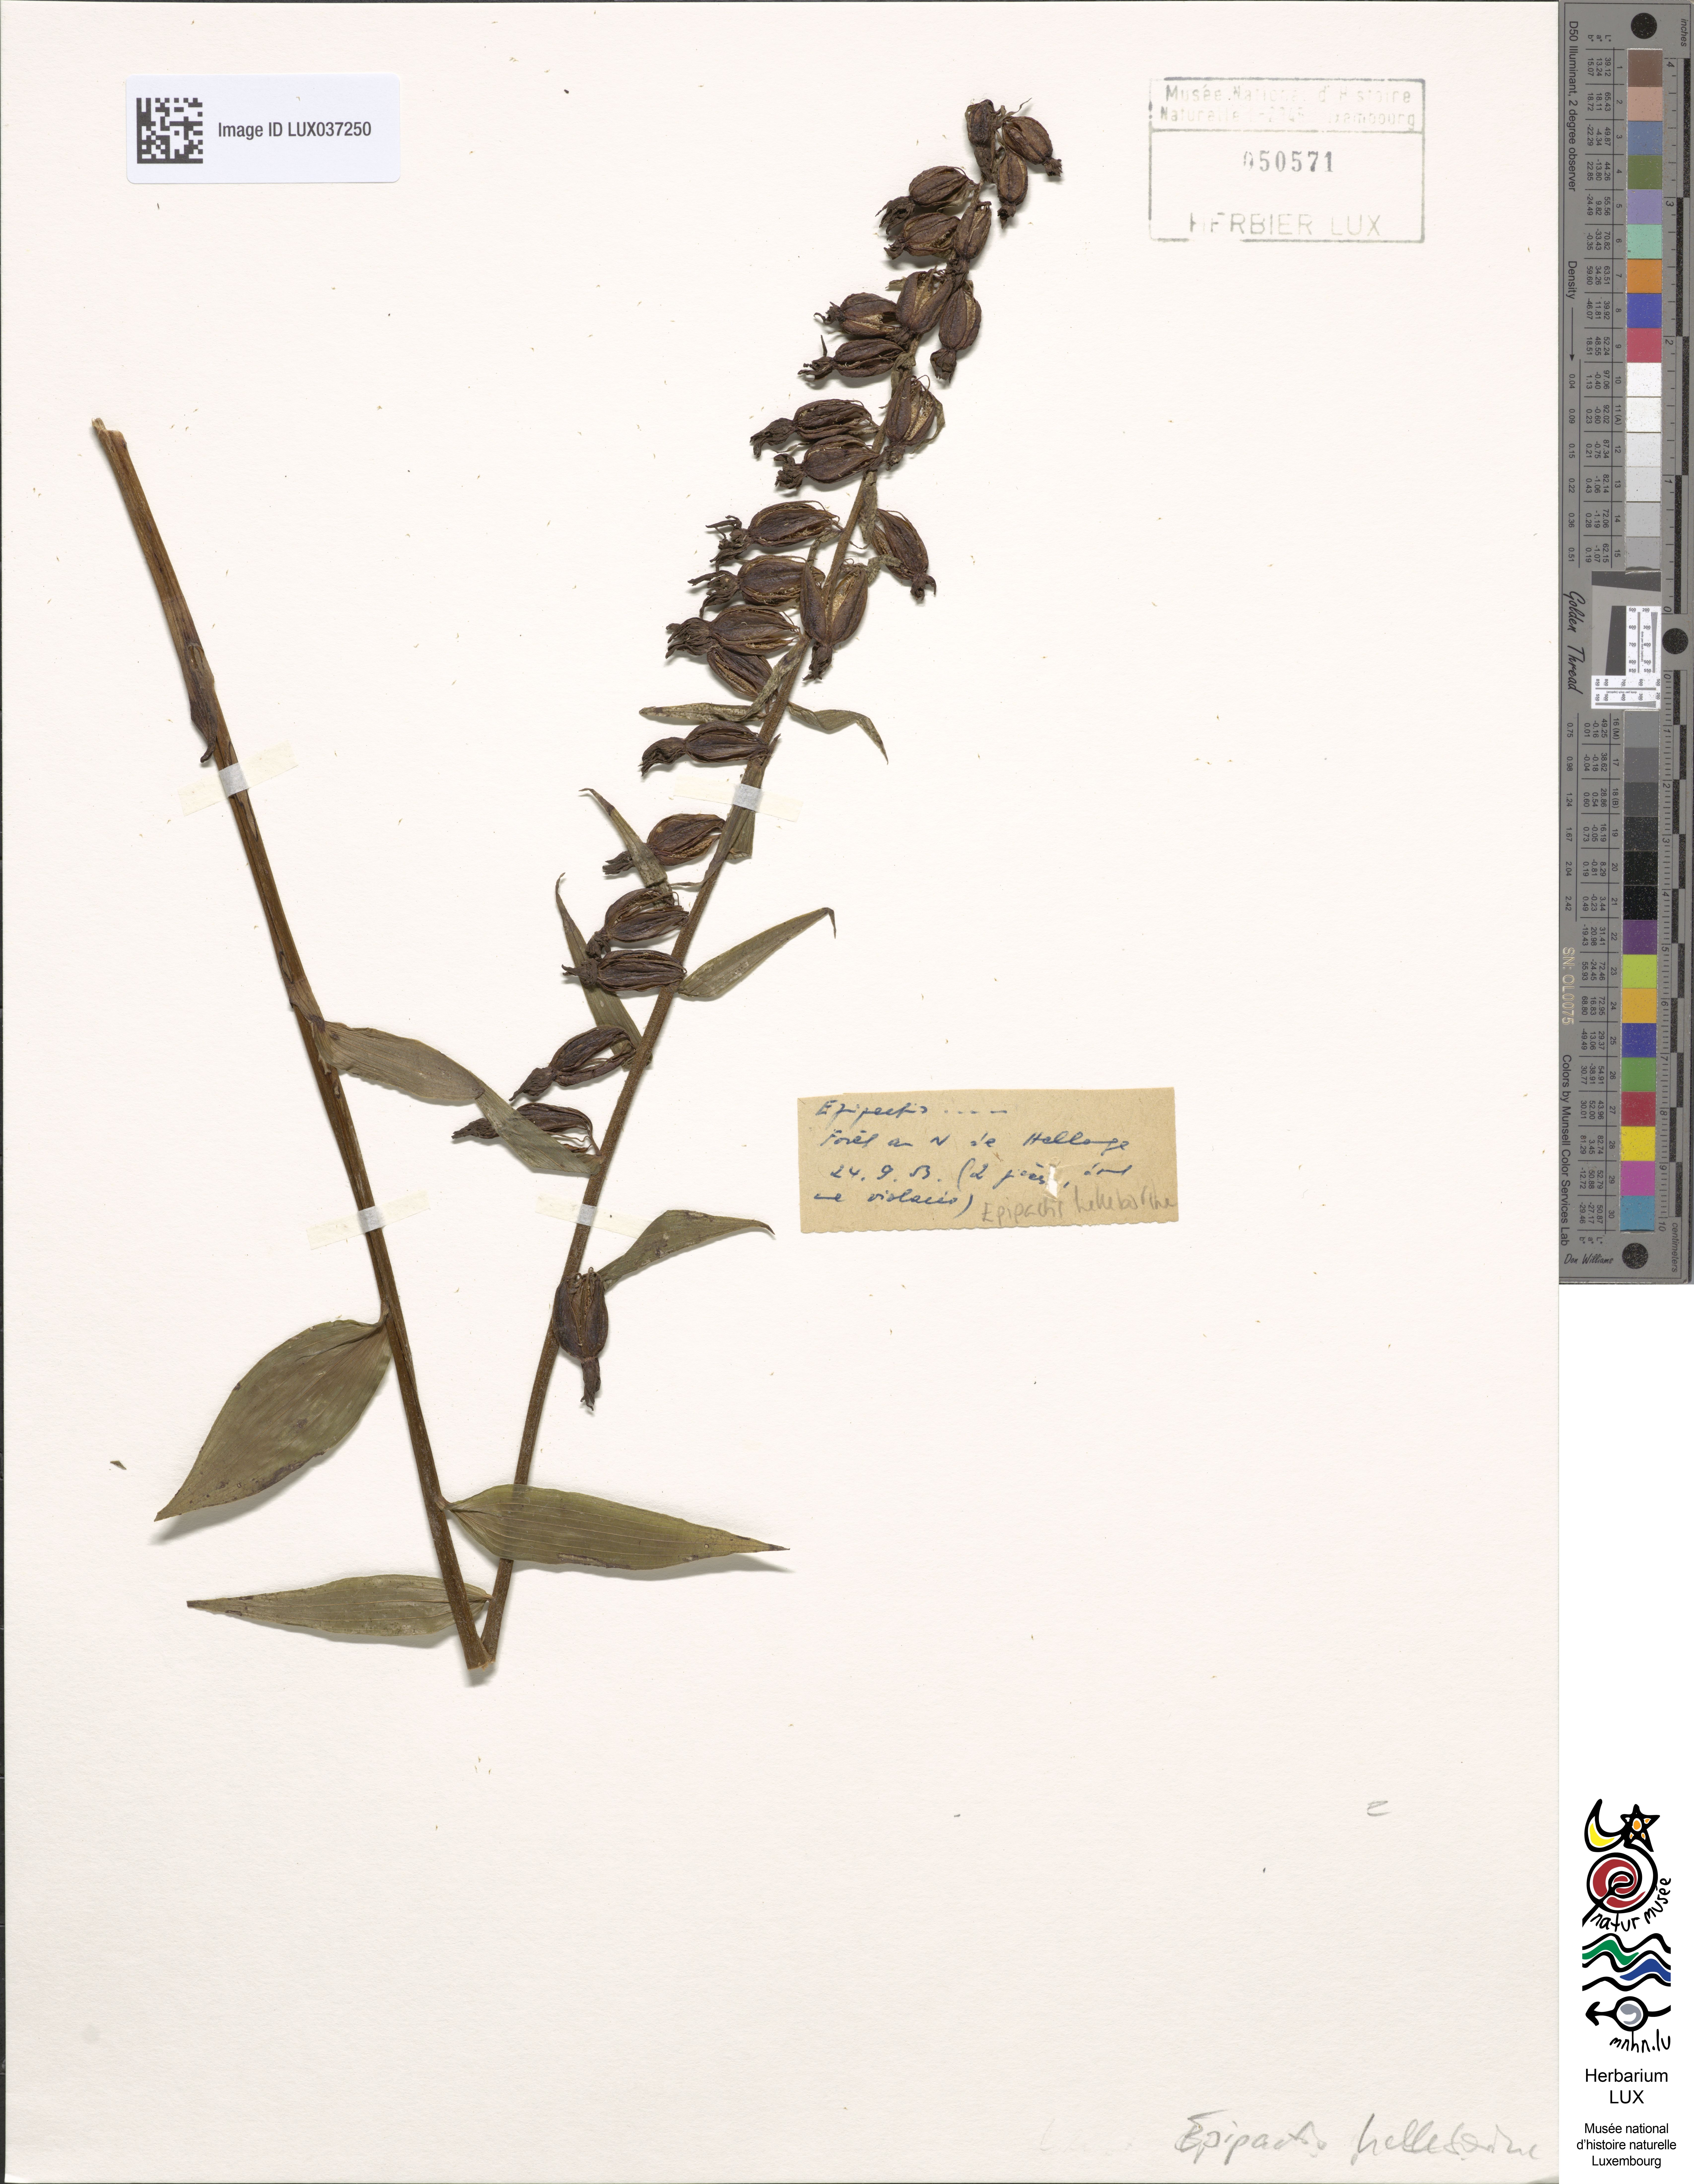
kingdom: Plantae
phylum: Tracheophyta
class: Liliopsida
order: Asparagales
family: Orchidaceae
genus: Epipactis
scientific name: Epipactis helleborine
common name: Broad-leaved helleborine
